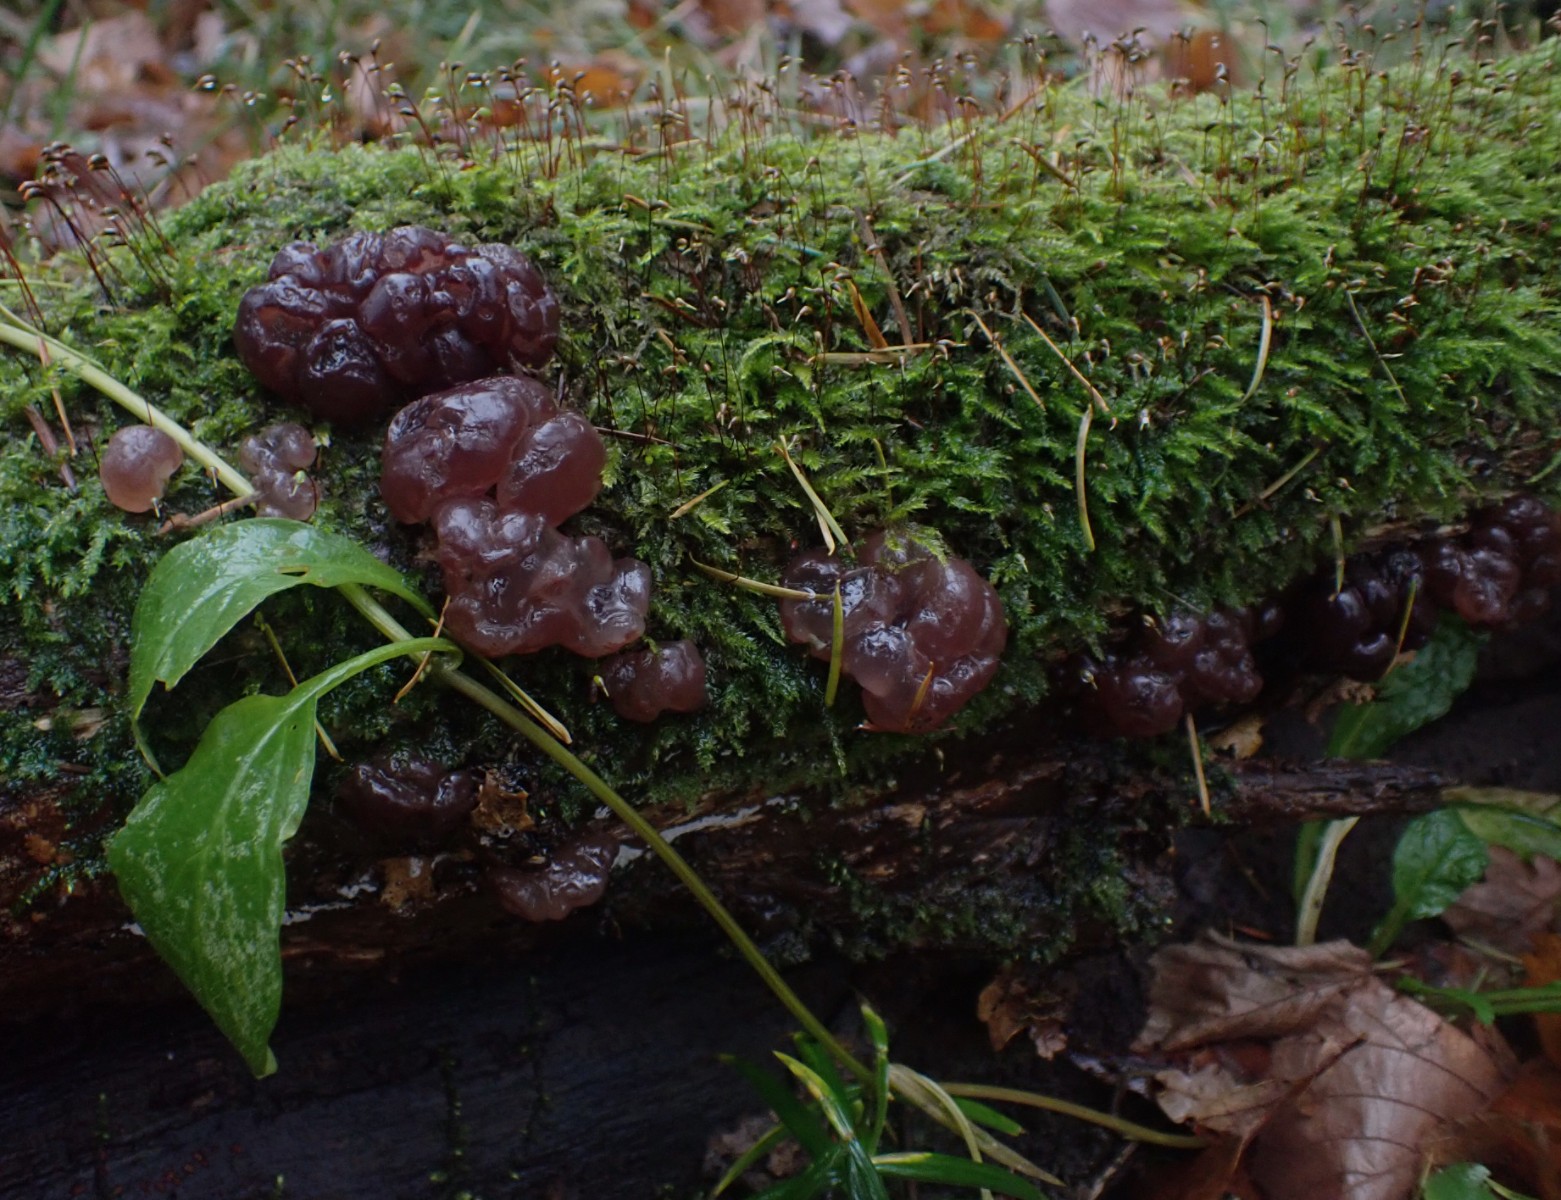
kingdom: Fungi
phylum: Ascomycota
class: Leotiomycetes
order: Helotiales
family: Gelatinodiscaceae
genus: Ascotremella
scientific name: Ascotremella faginea
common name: hjerne-bævreskive
